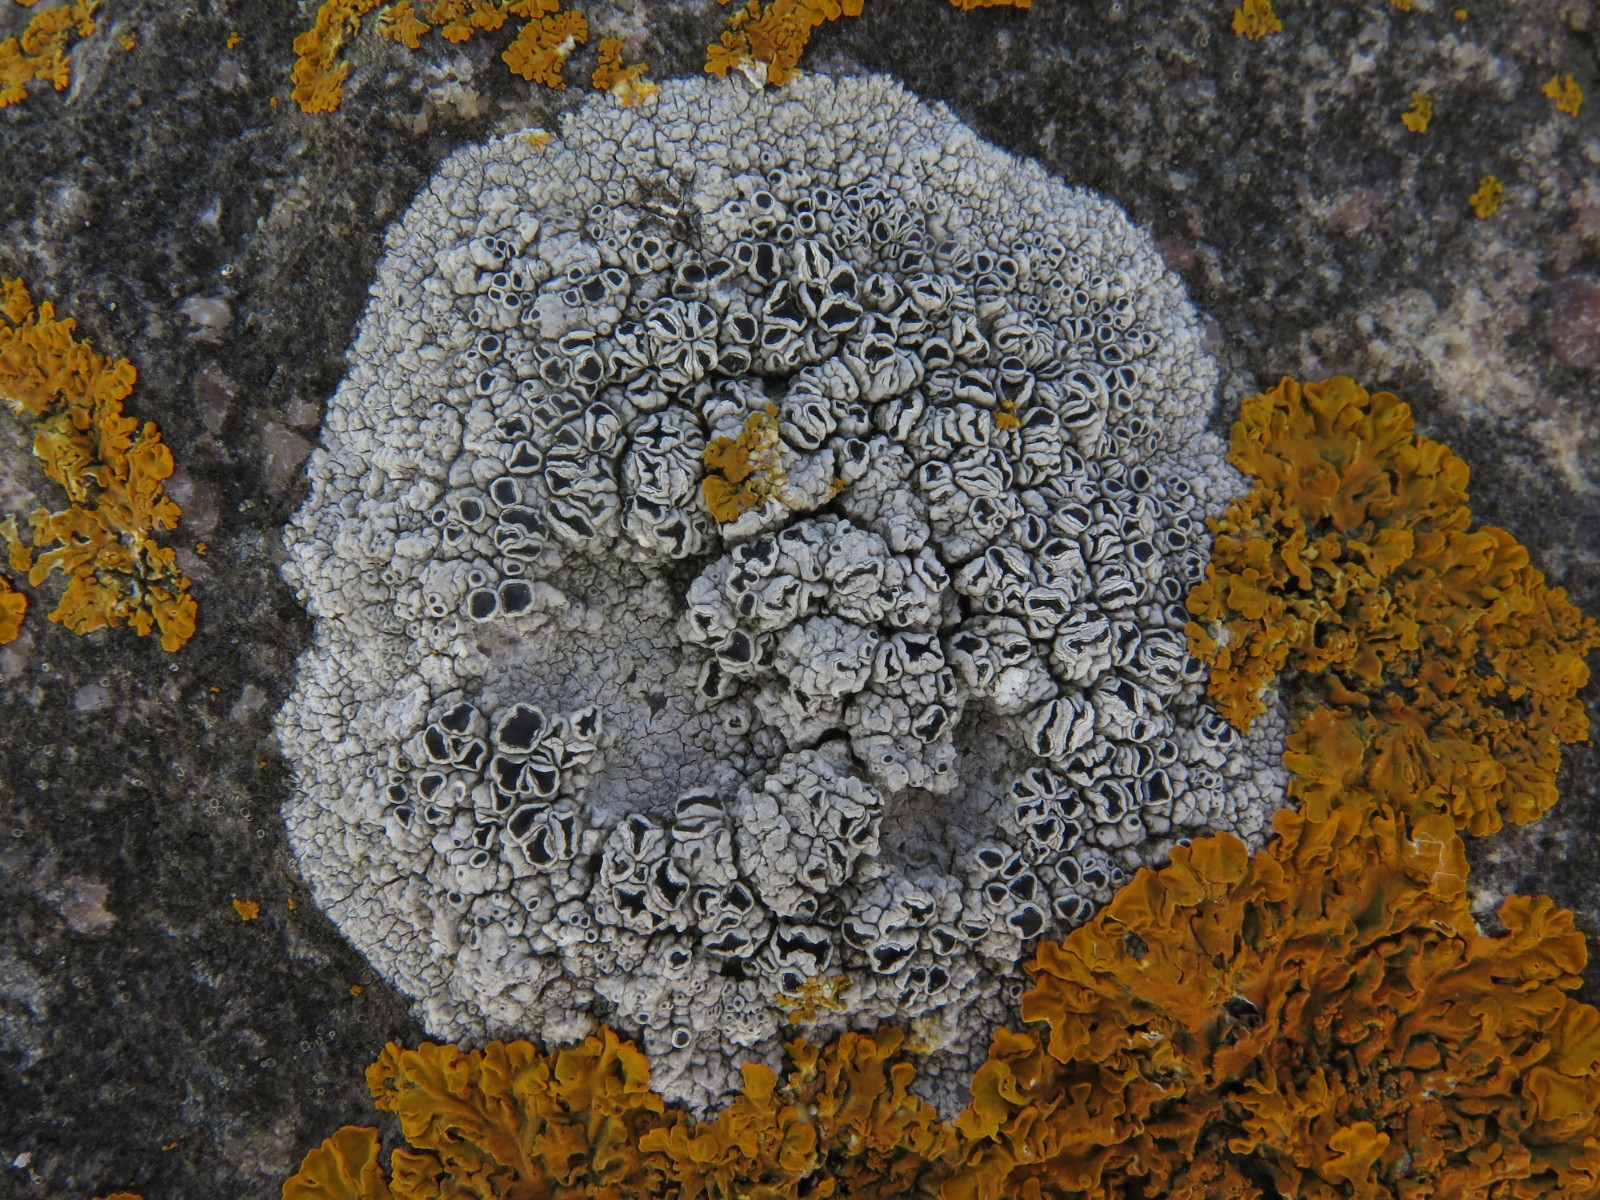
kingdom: Fungi
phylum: Ascomycota
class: Lecanoromycetes
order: Lecanorales
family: Tephromelataceae
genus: Tephromela
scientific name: Tephromela atra
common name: sortfrugtet kantskivelav
